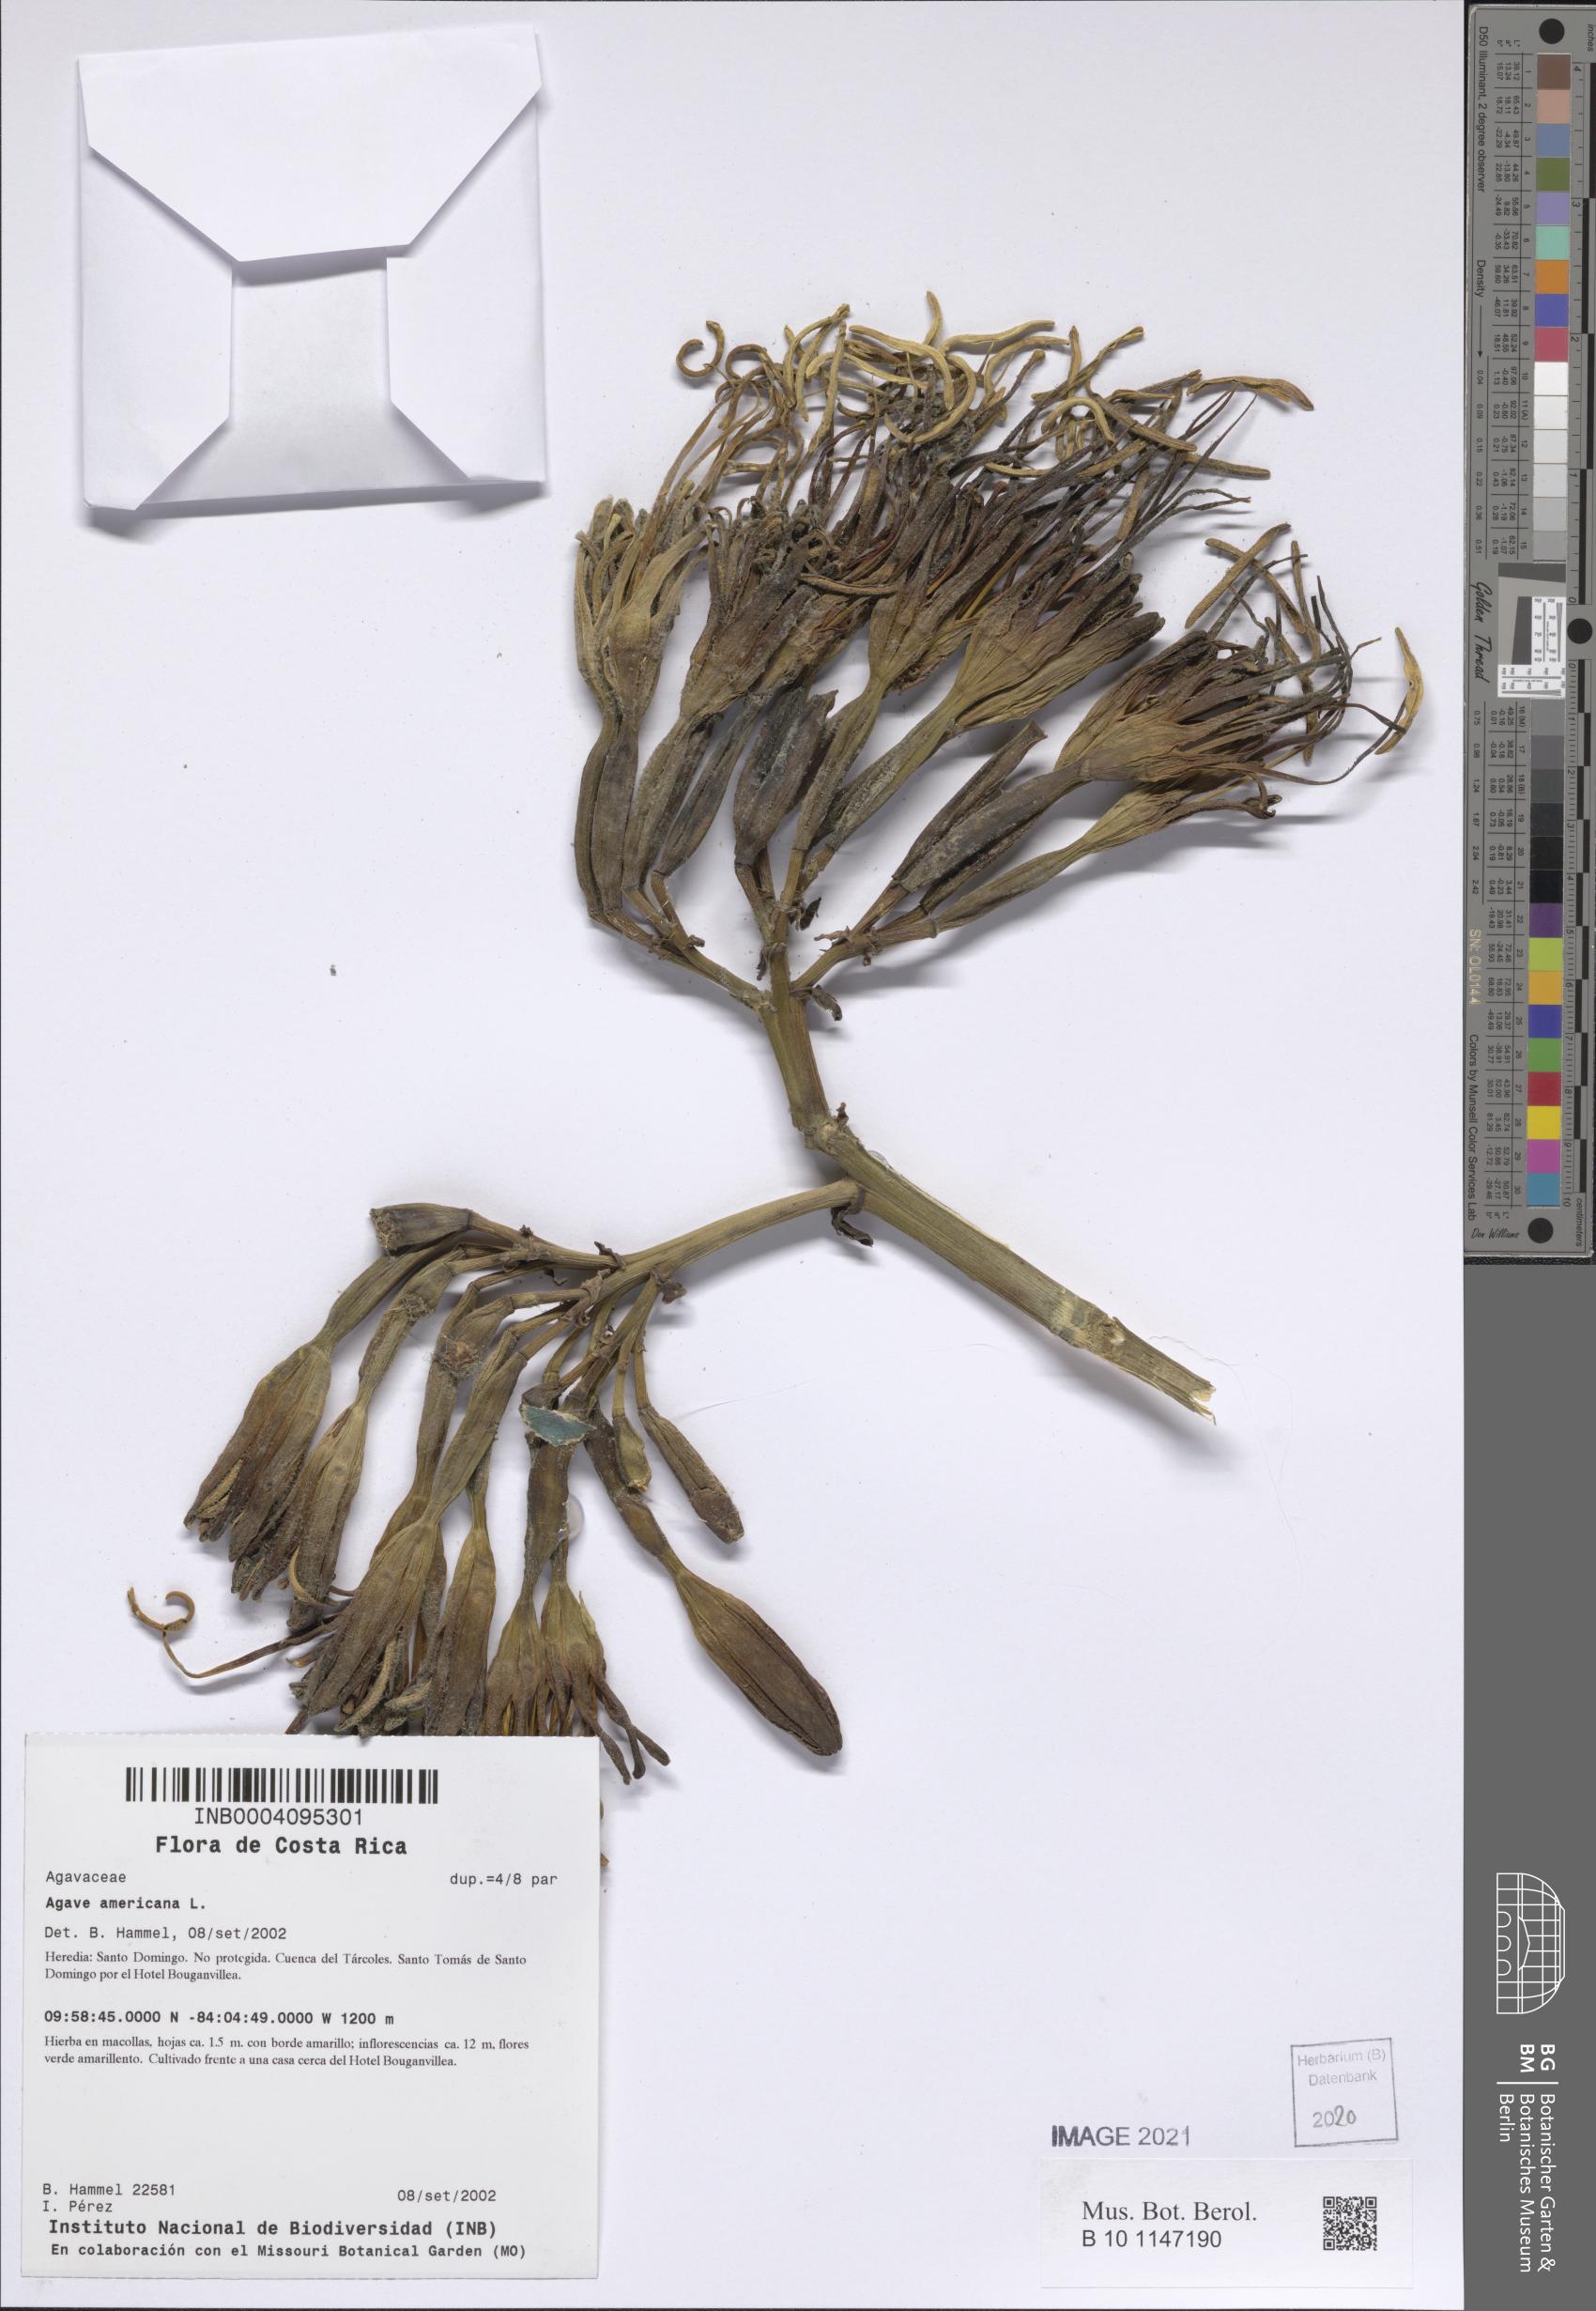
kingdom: Plantae
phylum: Tracheophyta
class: Liliopsida
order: Asparagales
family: Asparagaceae
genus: Agave
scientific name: Agave americana
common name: Centuryplant
